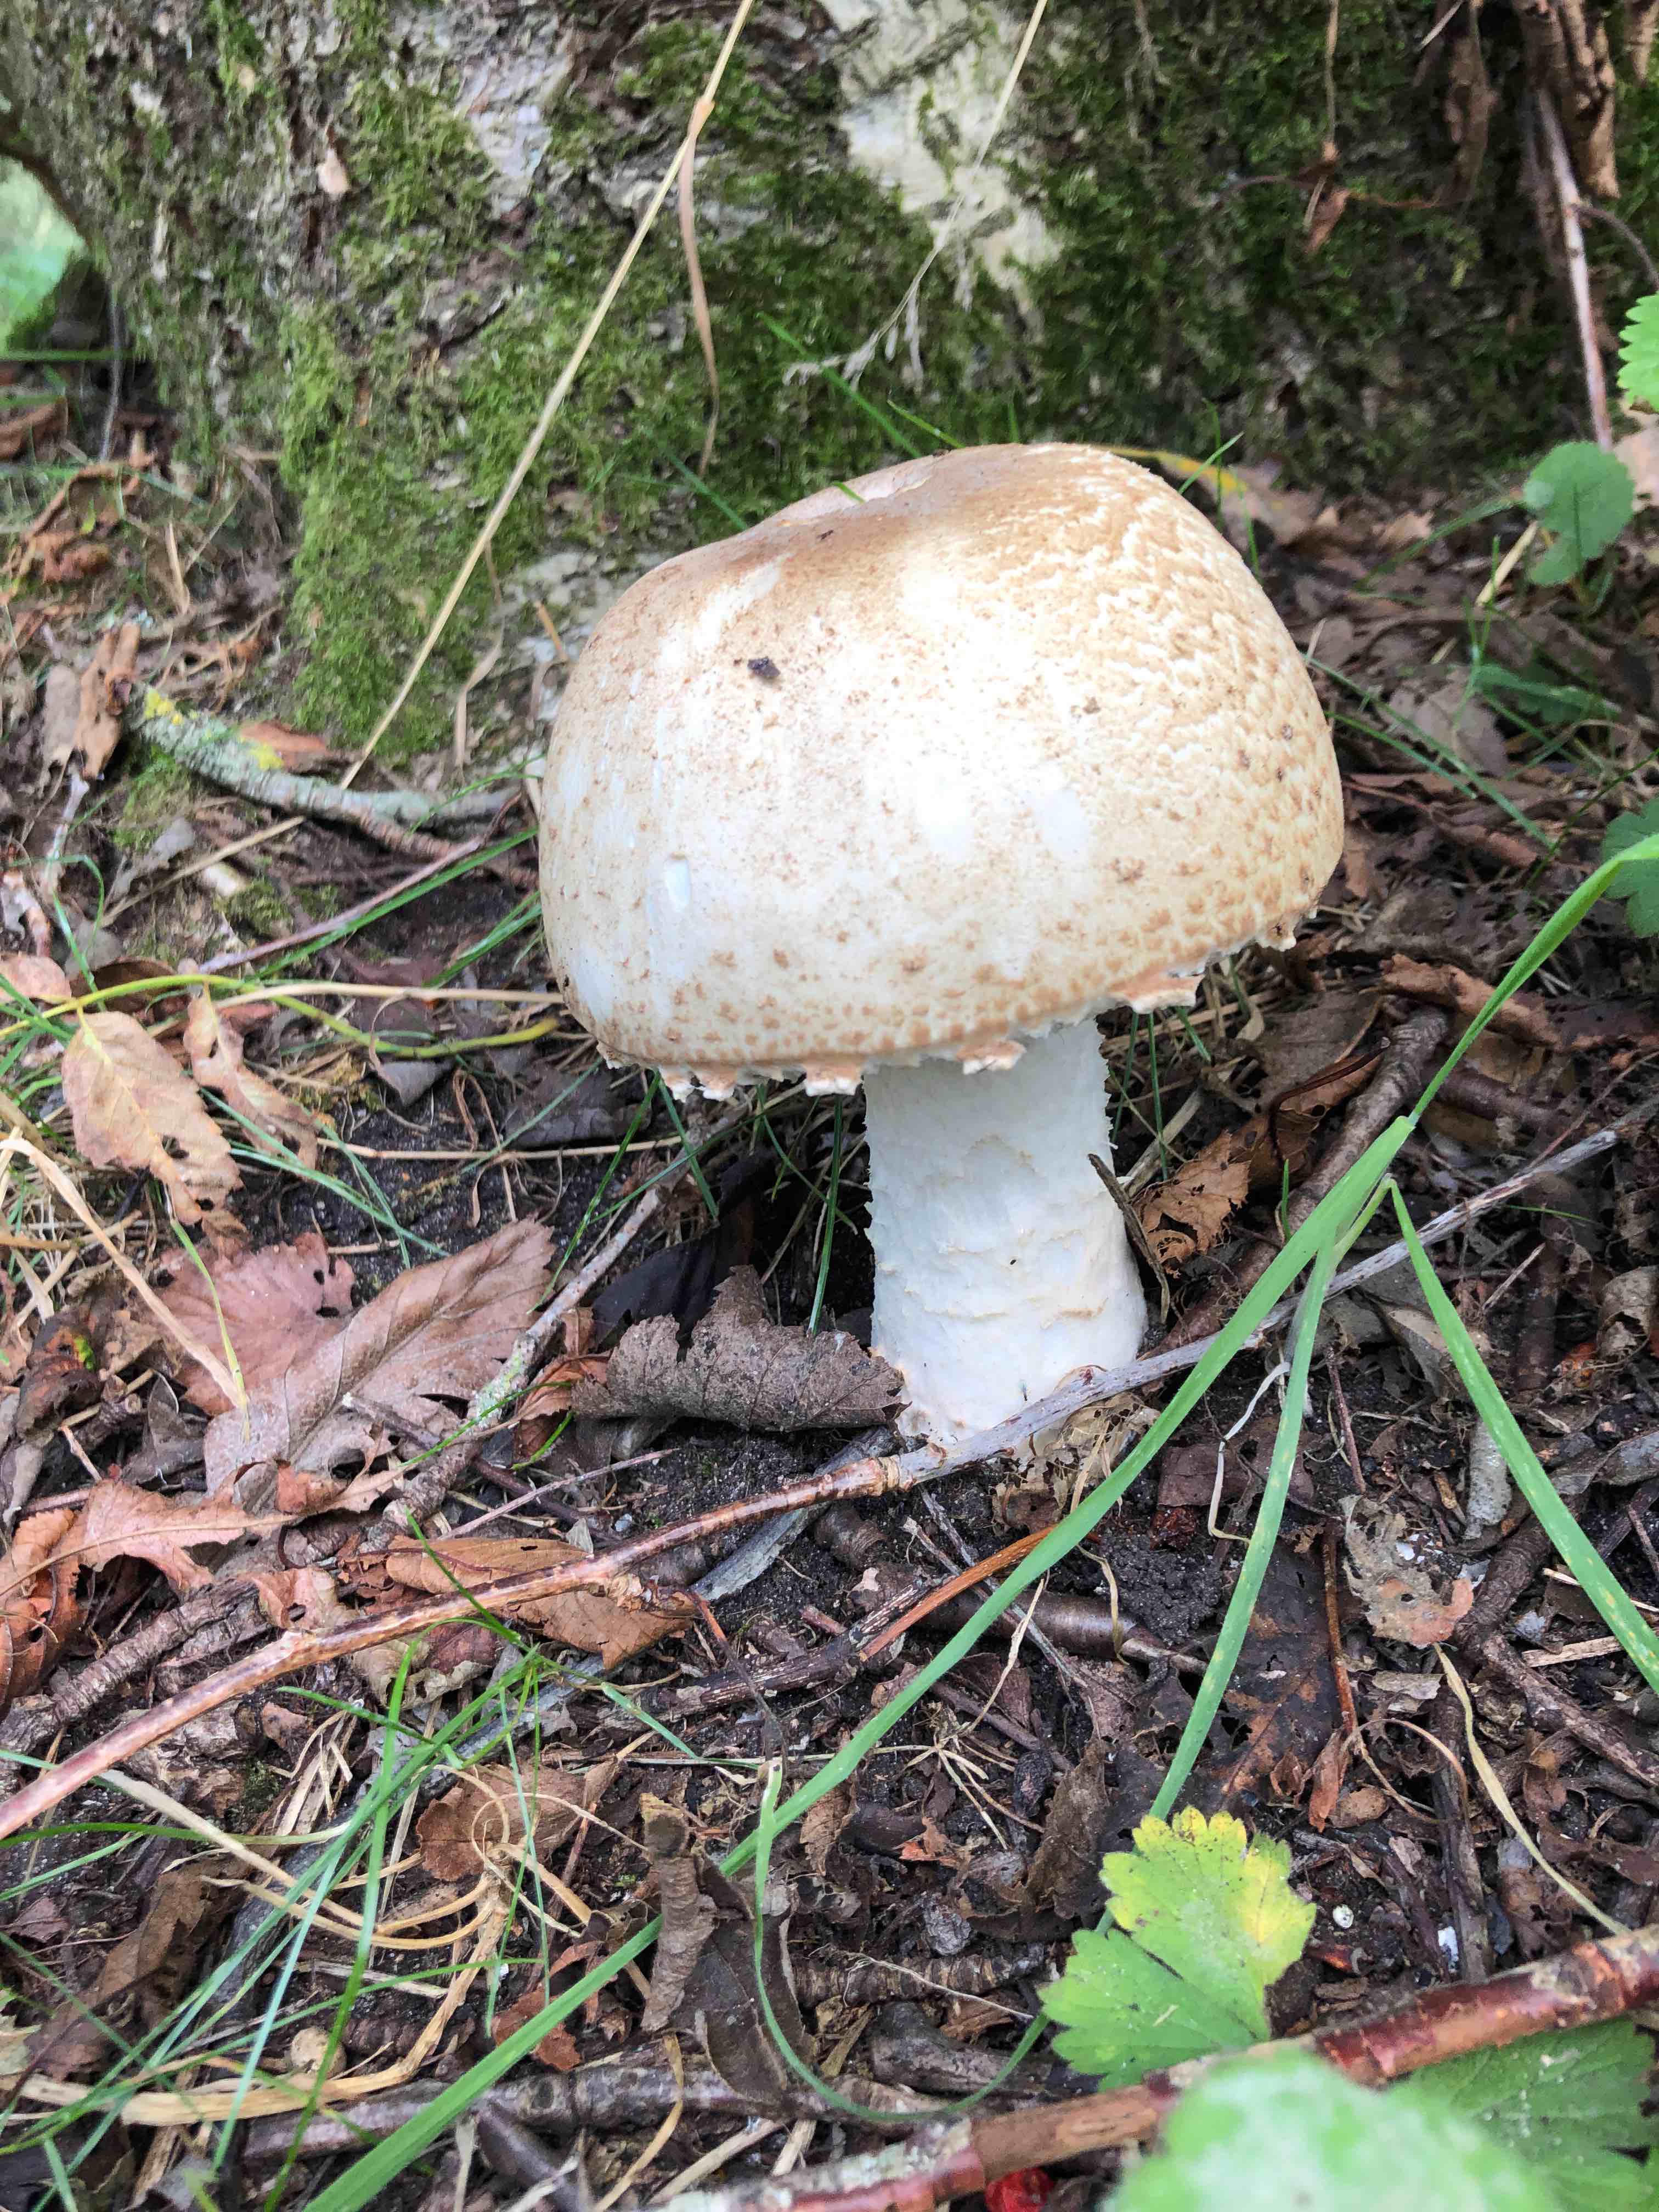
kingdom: Fungi
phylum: Basidiomycota
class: Agaricomycetes
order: Agaricales
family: Agaricaceae
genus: Agaricus
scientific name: Agaricus augustus
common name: prægtig champignon
